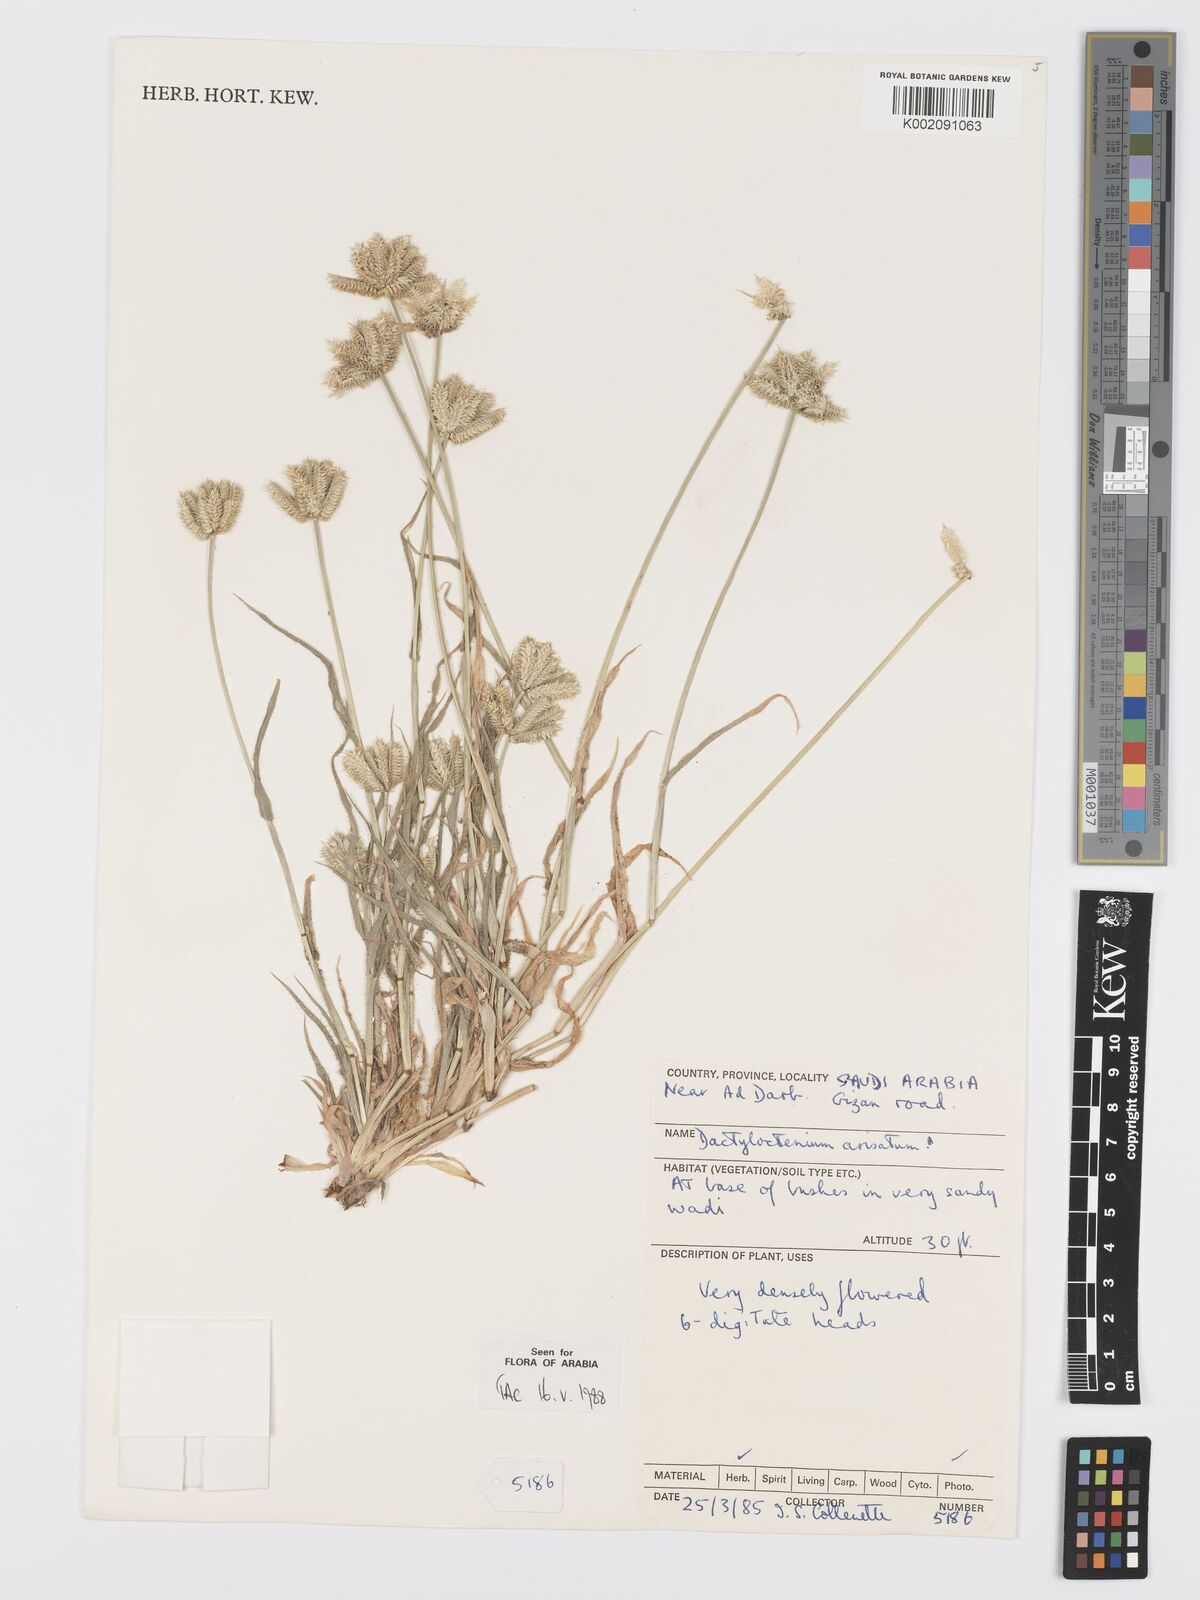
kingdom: Plantae
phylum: Tracheophyta
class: Liliopsida
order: Poales
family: Poaceae
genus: Dactyloctenium
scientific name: Dactyloctenium aristatum
